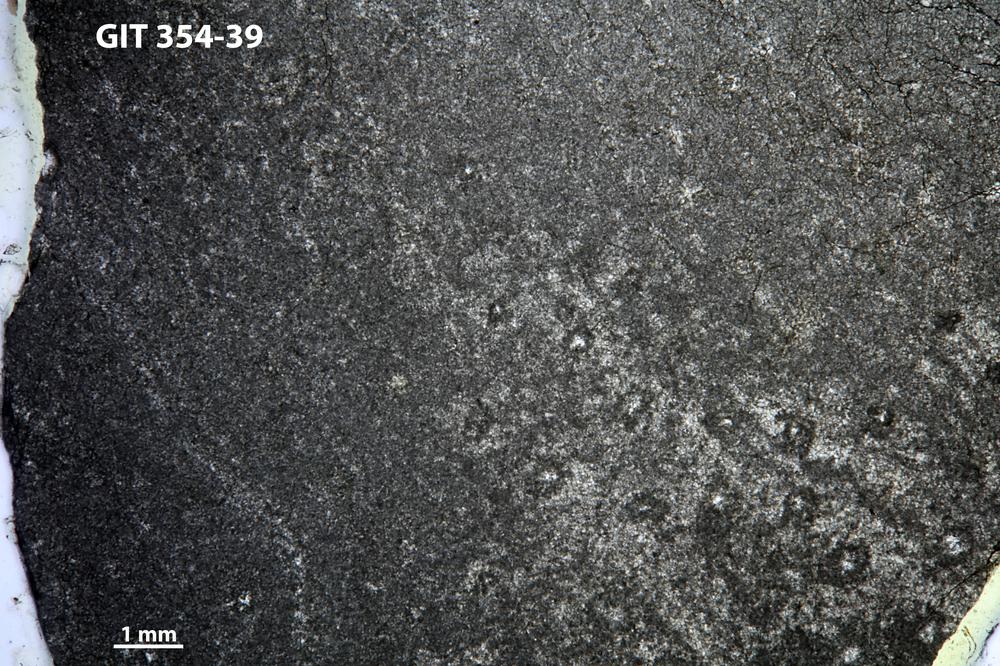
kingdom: Animalia
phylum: Porifera
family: Pseudolabechiidae
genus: Plumatalinia
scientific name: Plumatalinia ferax
